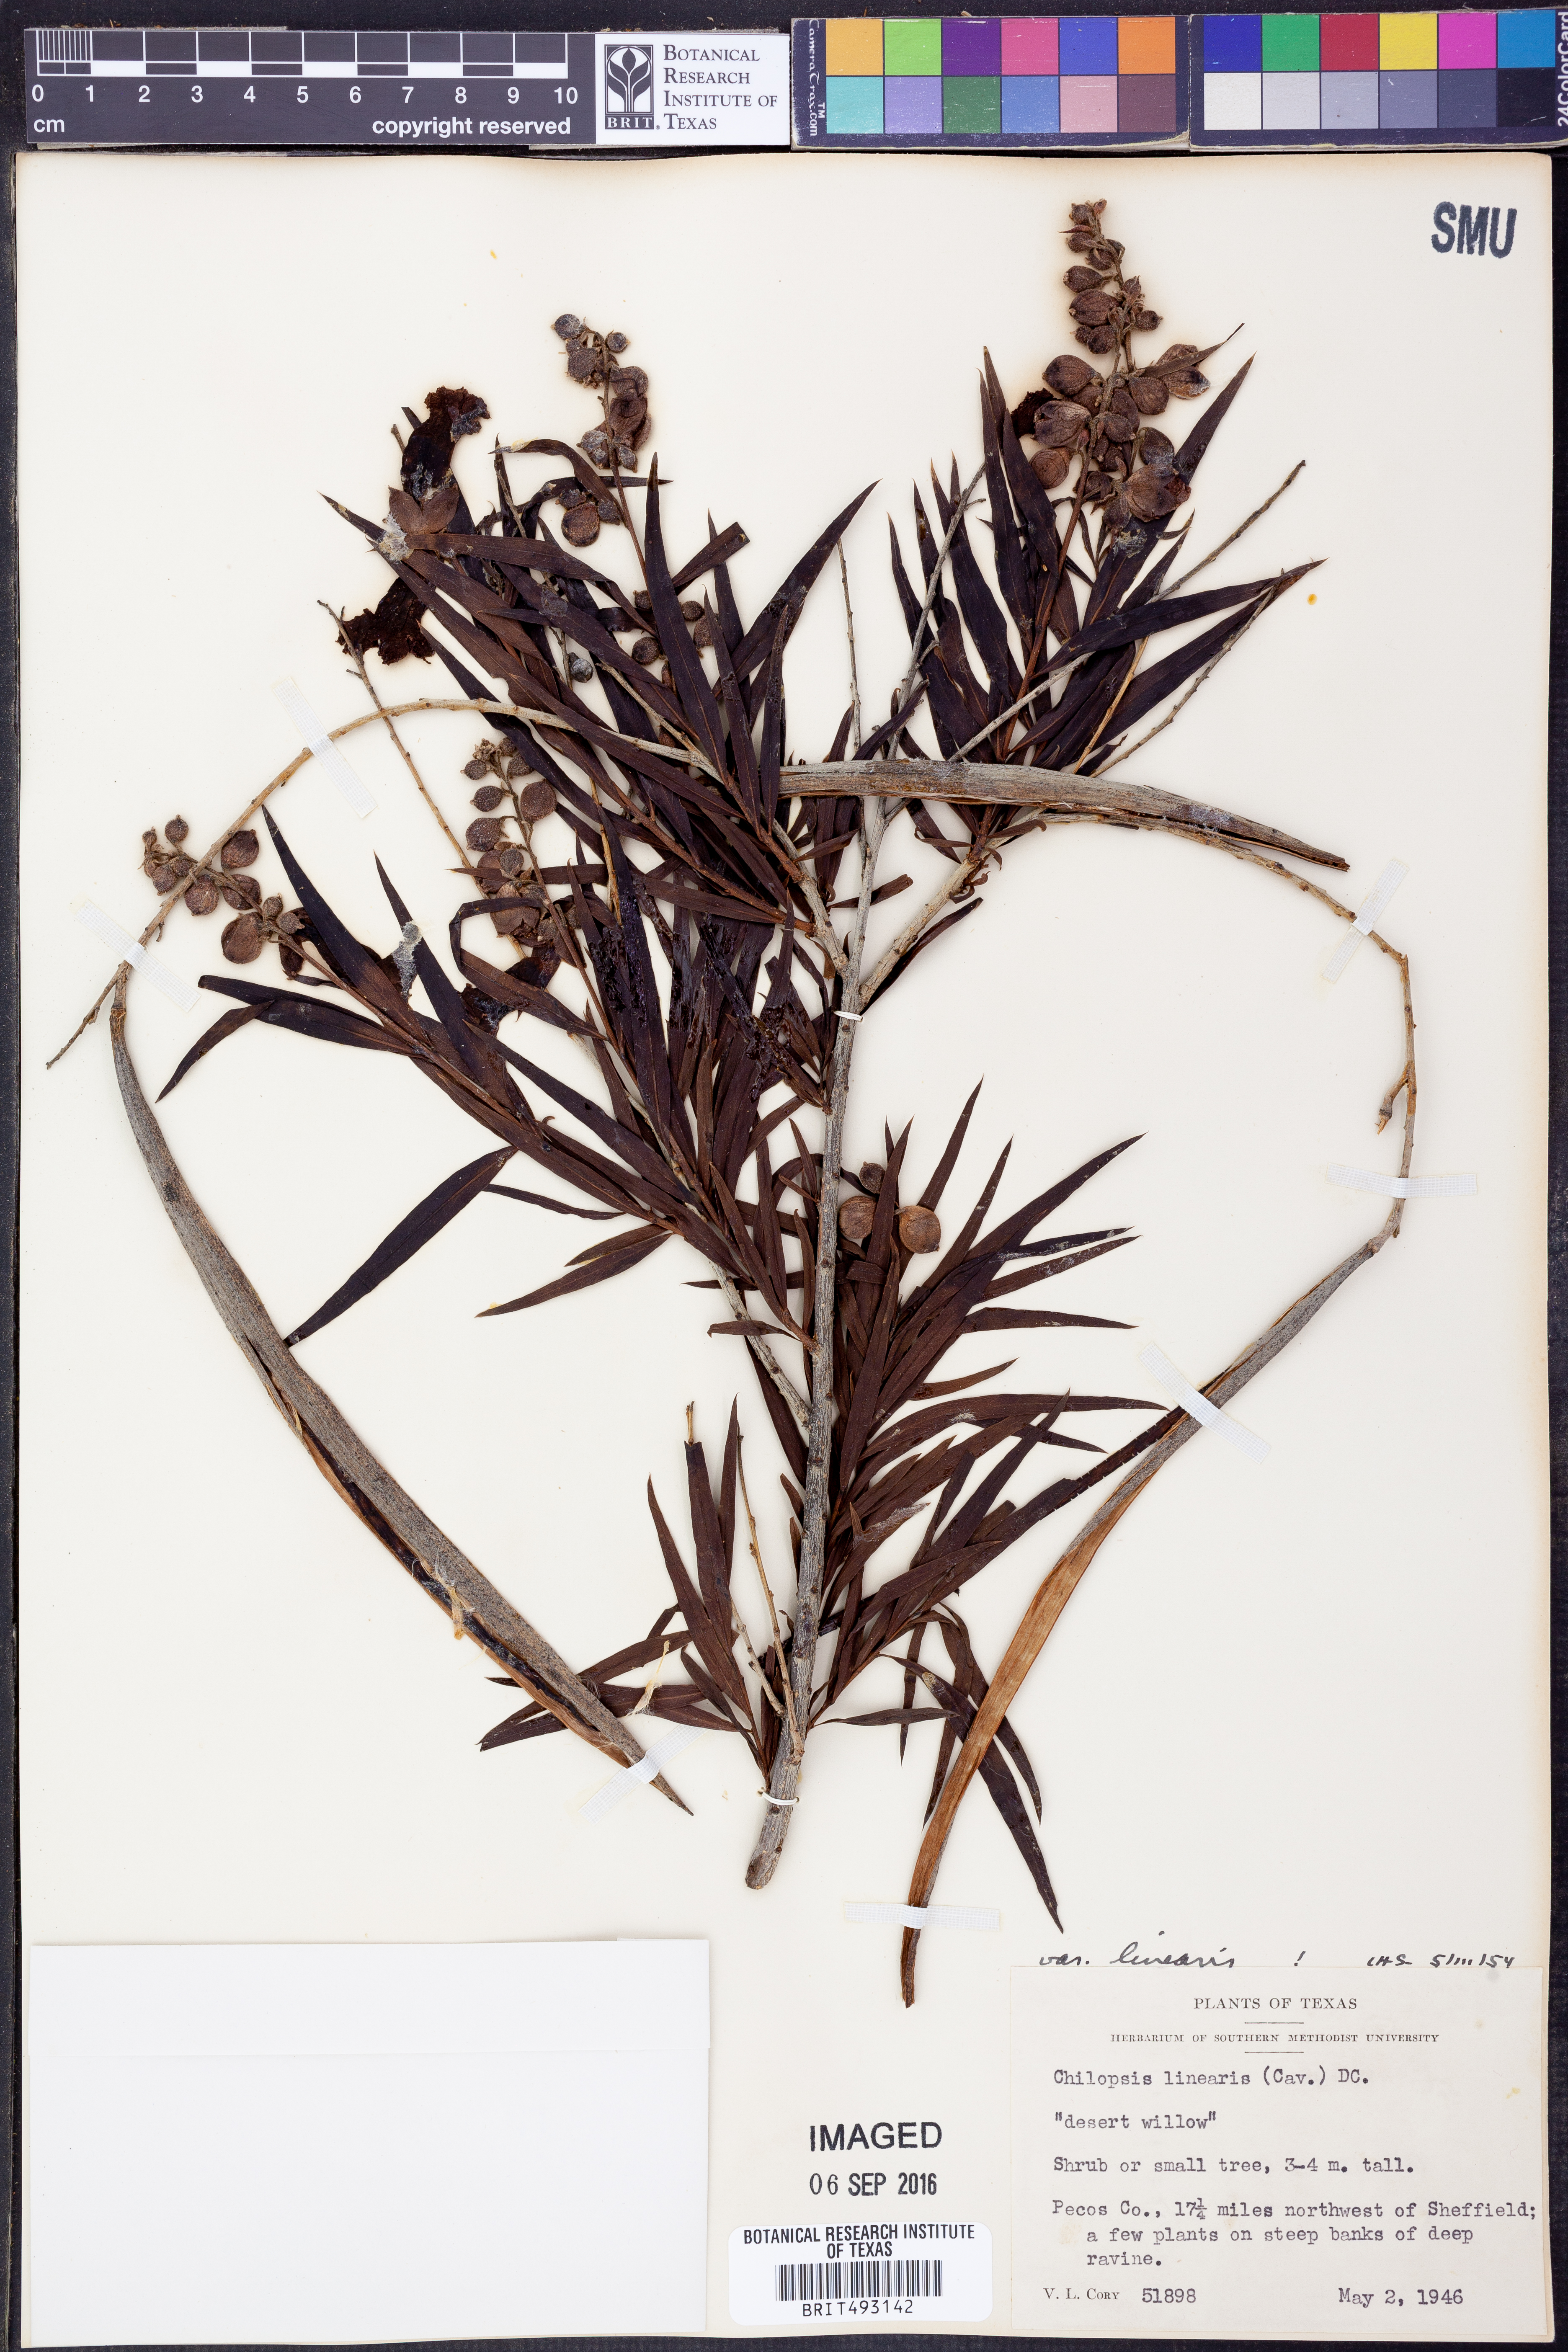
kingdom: Plantae
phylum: Tracheophyta
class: Magnoliopsida
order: Lamiales
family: Bignoniaceae
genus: Chilopsis
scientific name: Chilopsis linearis
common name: Desert-willow
